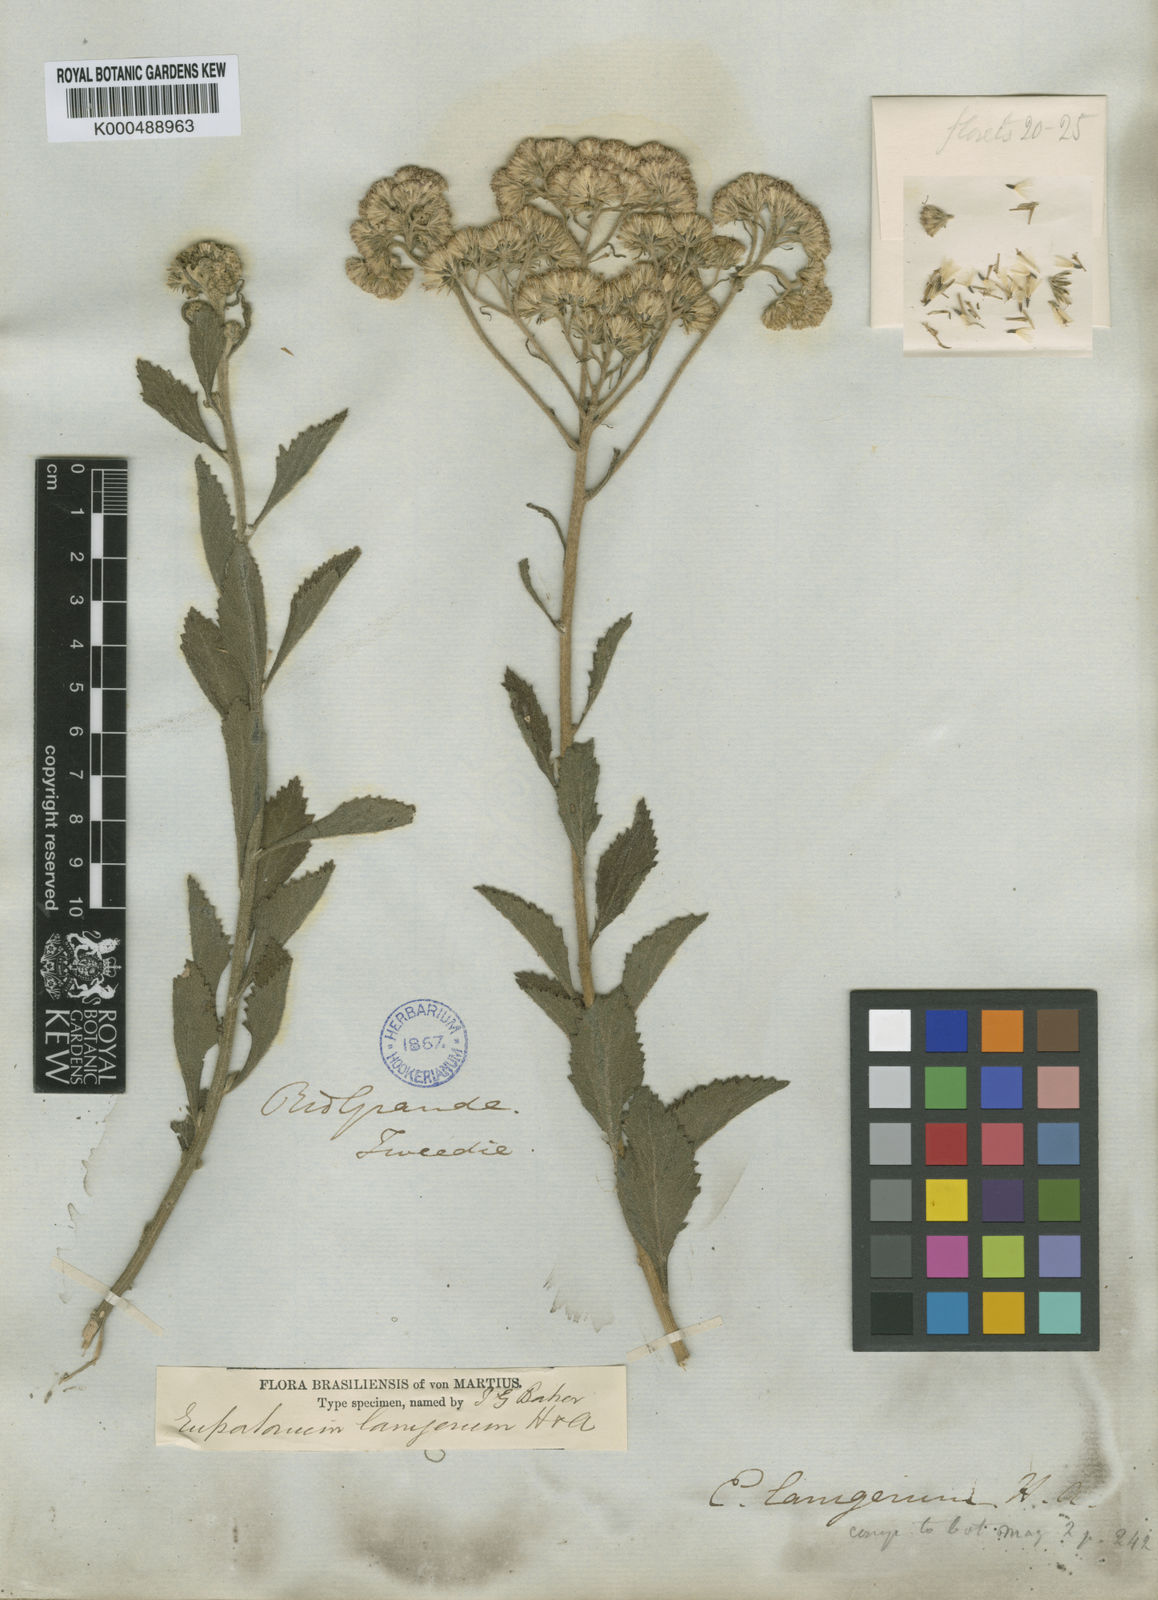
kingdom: Plantae
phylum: Tracheophyta
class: Magnoliopsida
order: Asterales
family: Asteraceae
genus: Gyptis
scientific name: Gyptis lanigera
